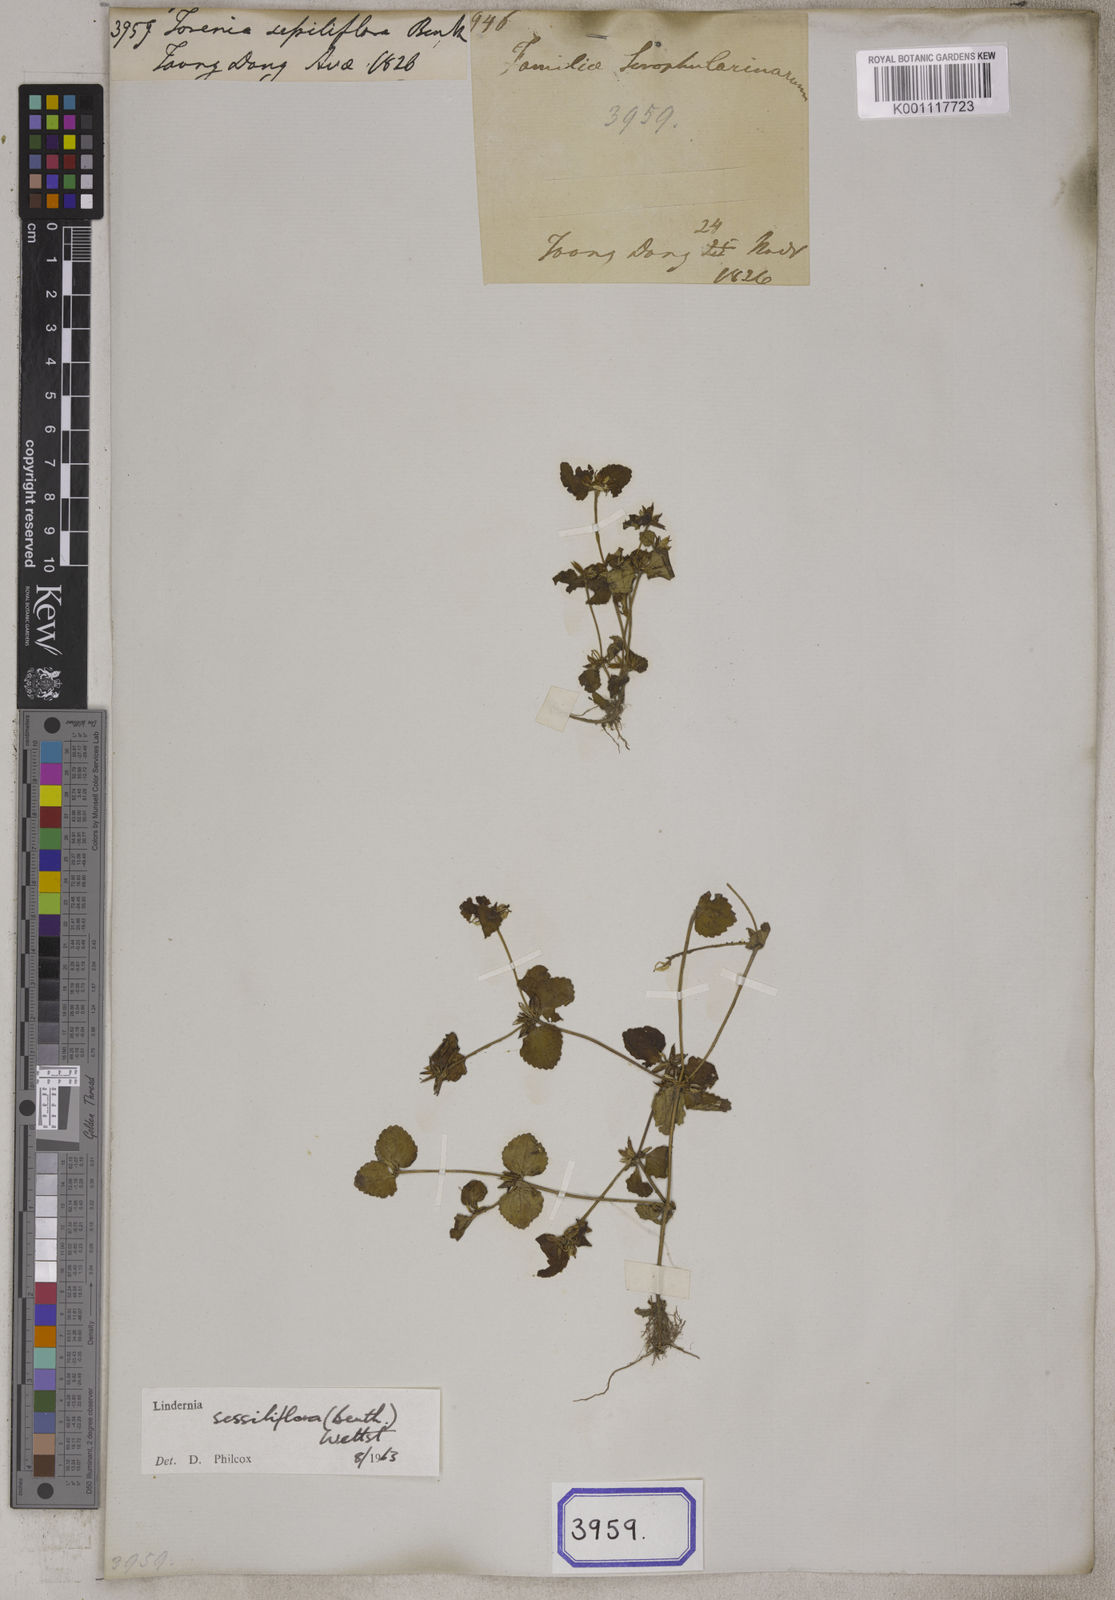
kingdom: Plantae
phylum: Tracheophyta
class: Magnoliopsida
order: Lamiales
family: Linderniaceae
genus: Craterostigma
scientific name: Craterostigma sessiliflorum
